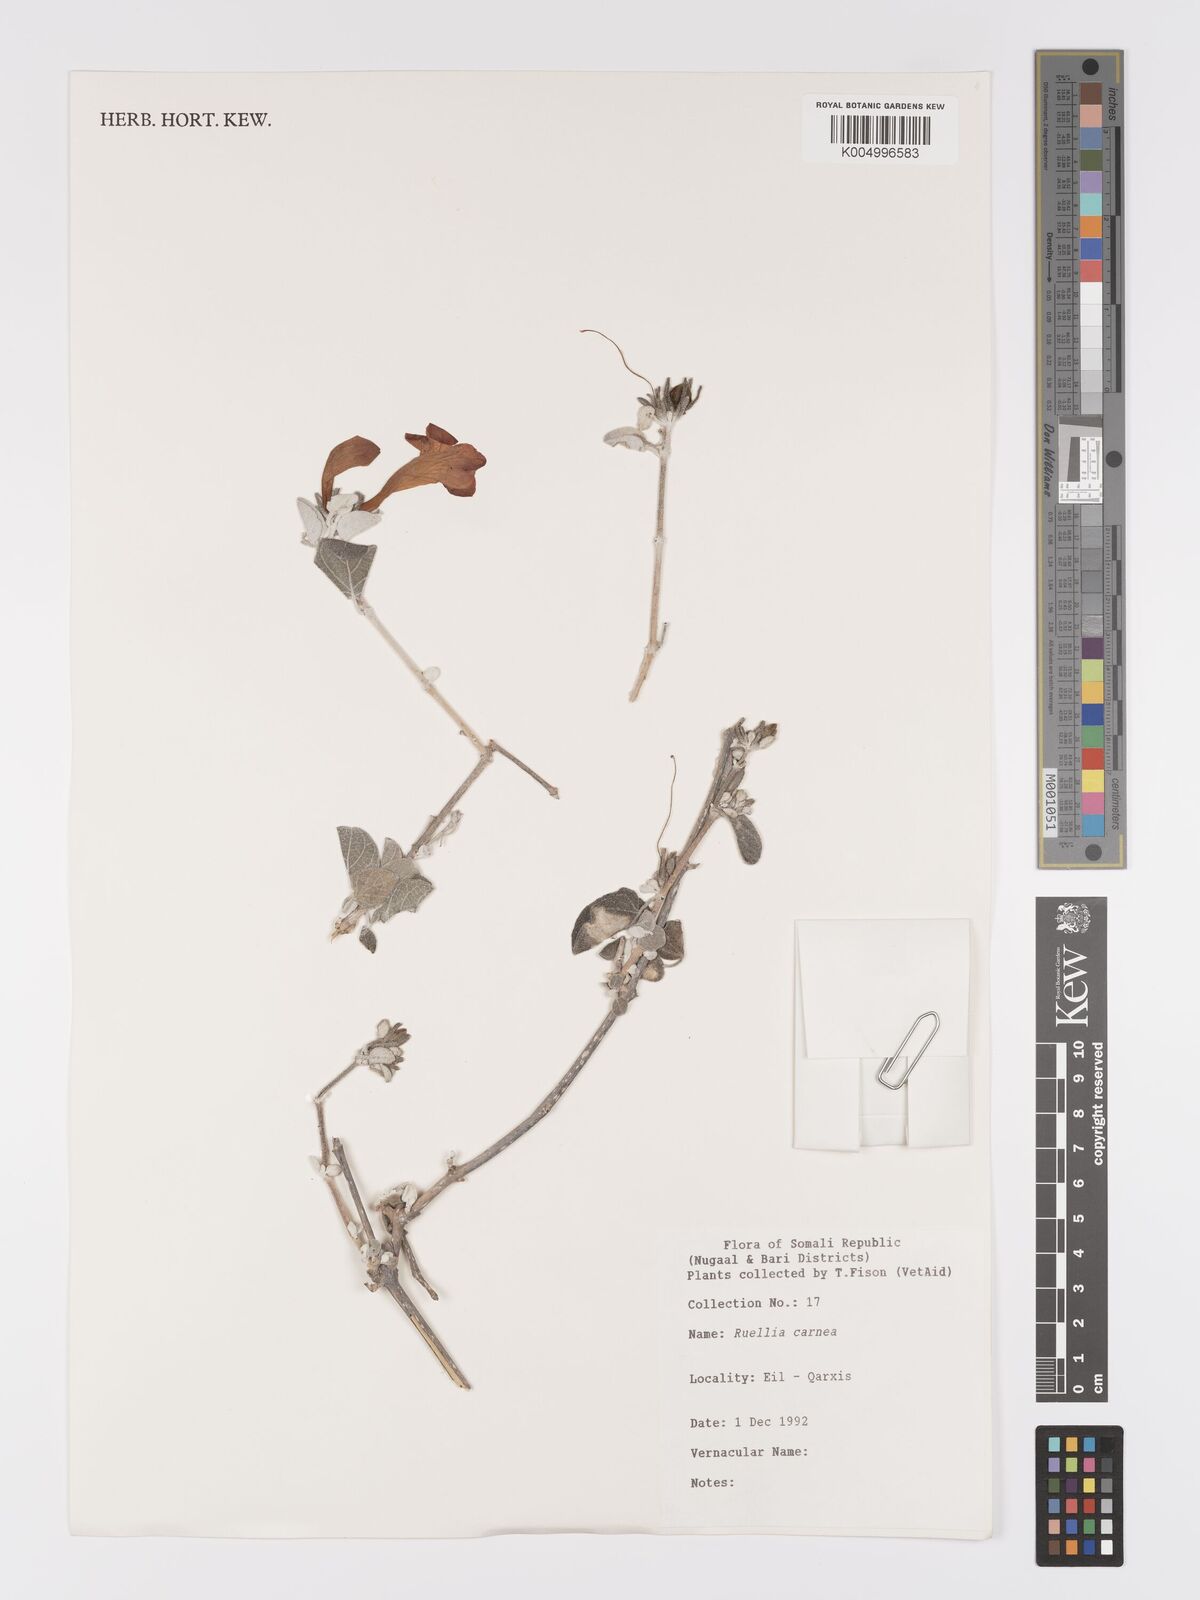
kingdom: Plantae
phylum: Tracheophyta
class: Magnoliopsida
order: Lamiales
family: Acanthaceae
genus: Ruellia
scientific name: Ruellia carnea
